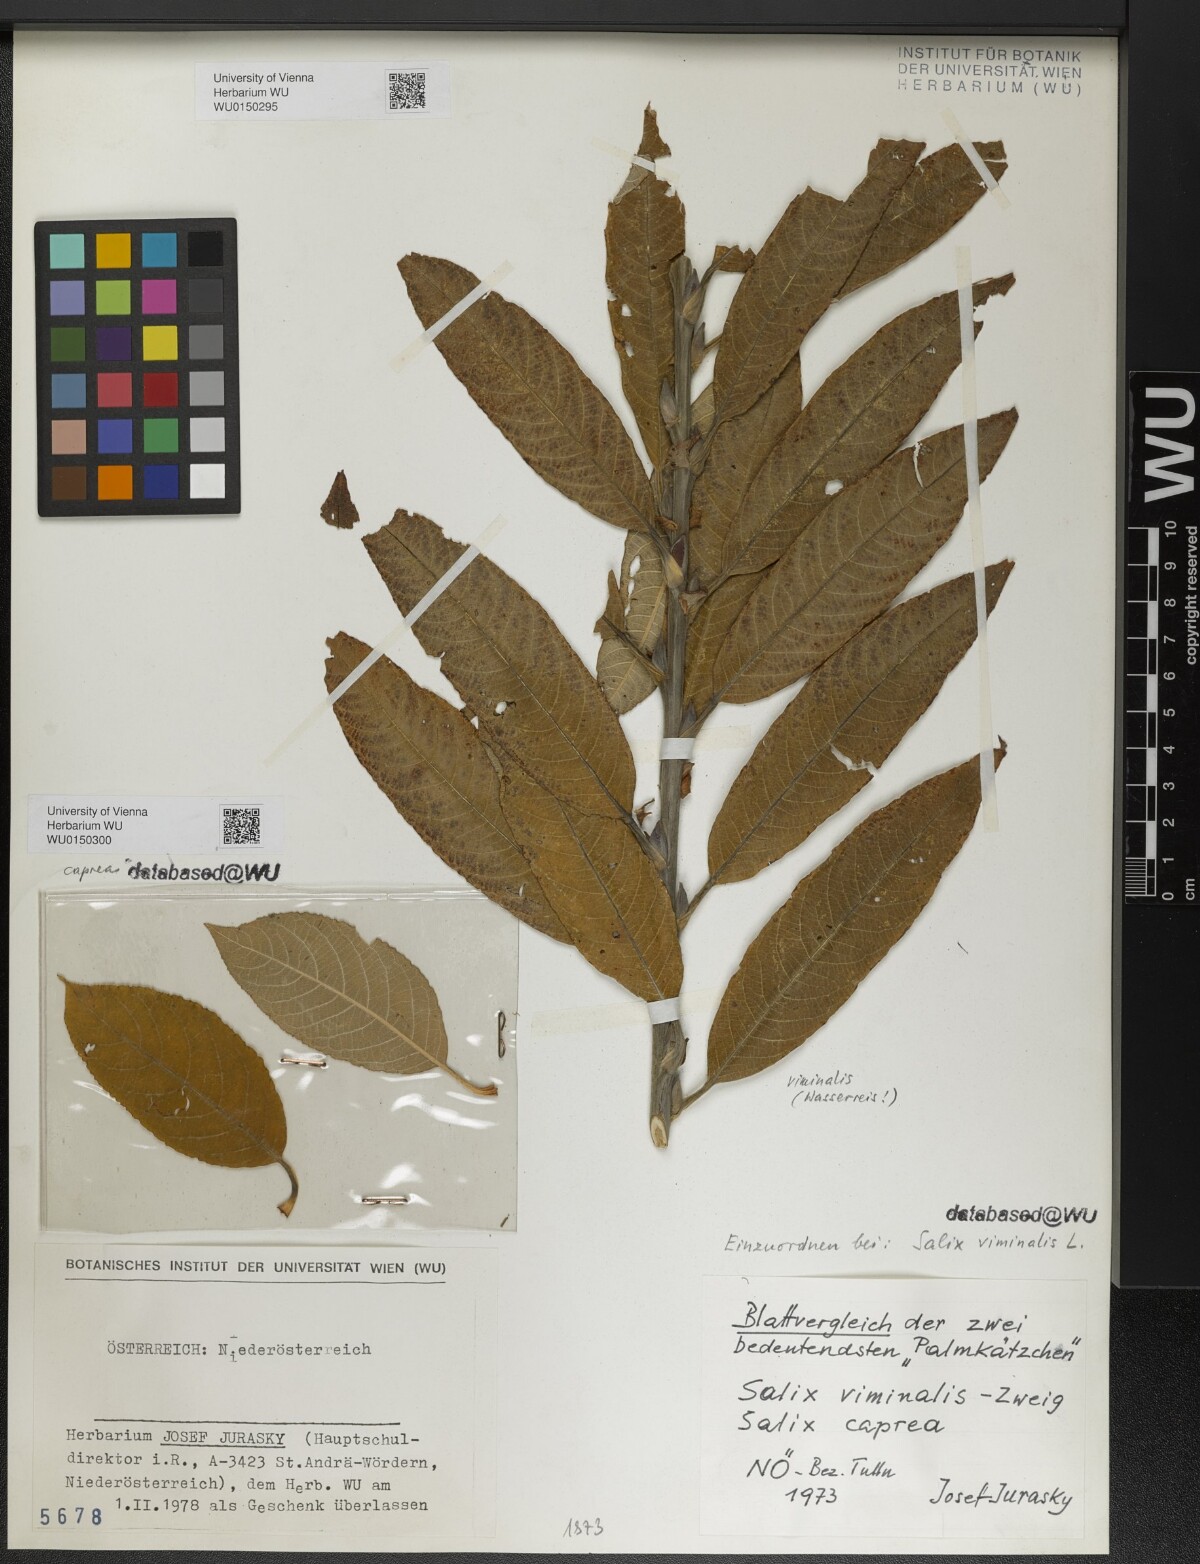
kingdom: Plantae
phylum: Tracheophyta
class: Magnoliopsida
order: Malpighiales
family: Salicaceae
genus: Salix
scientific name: Salix caprea
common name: Goat willow
